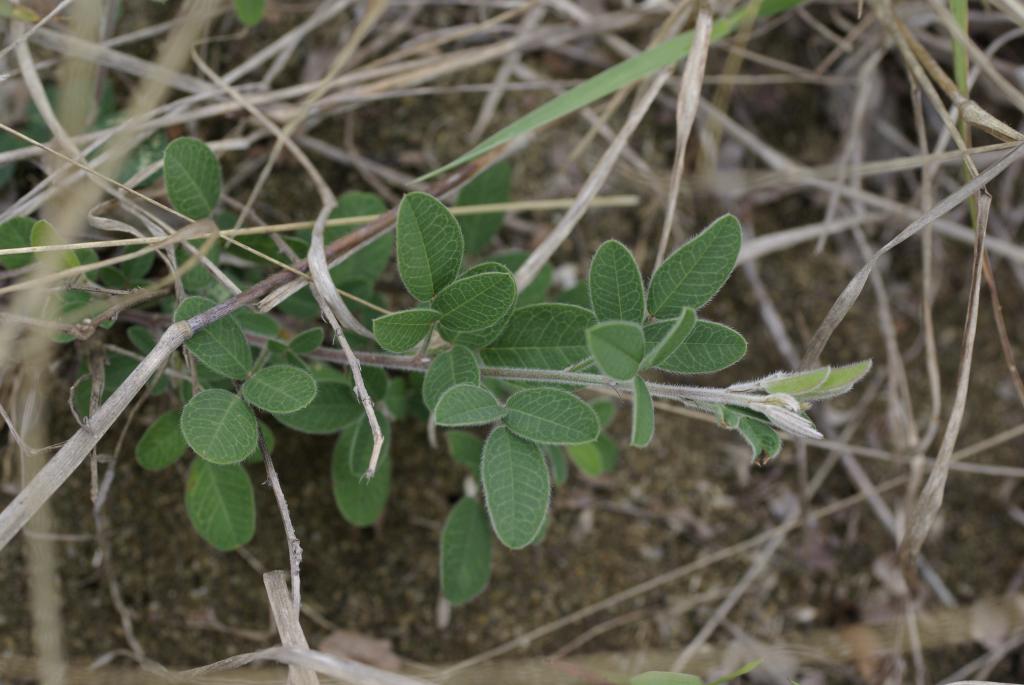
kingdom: Plantae
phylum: Tracheophyta
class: Magnoliopsida
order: Fabales
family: Fabaceae
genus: Lespedeza
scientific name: Lespedeza daurica
